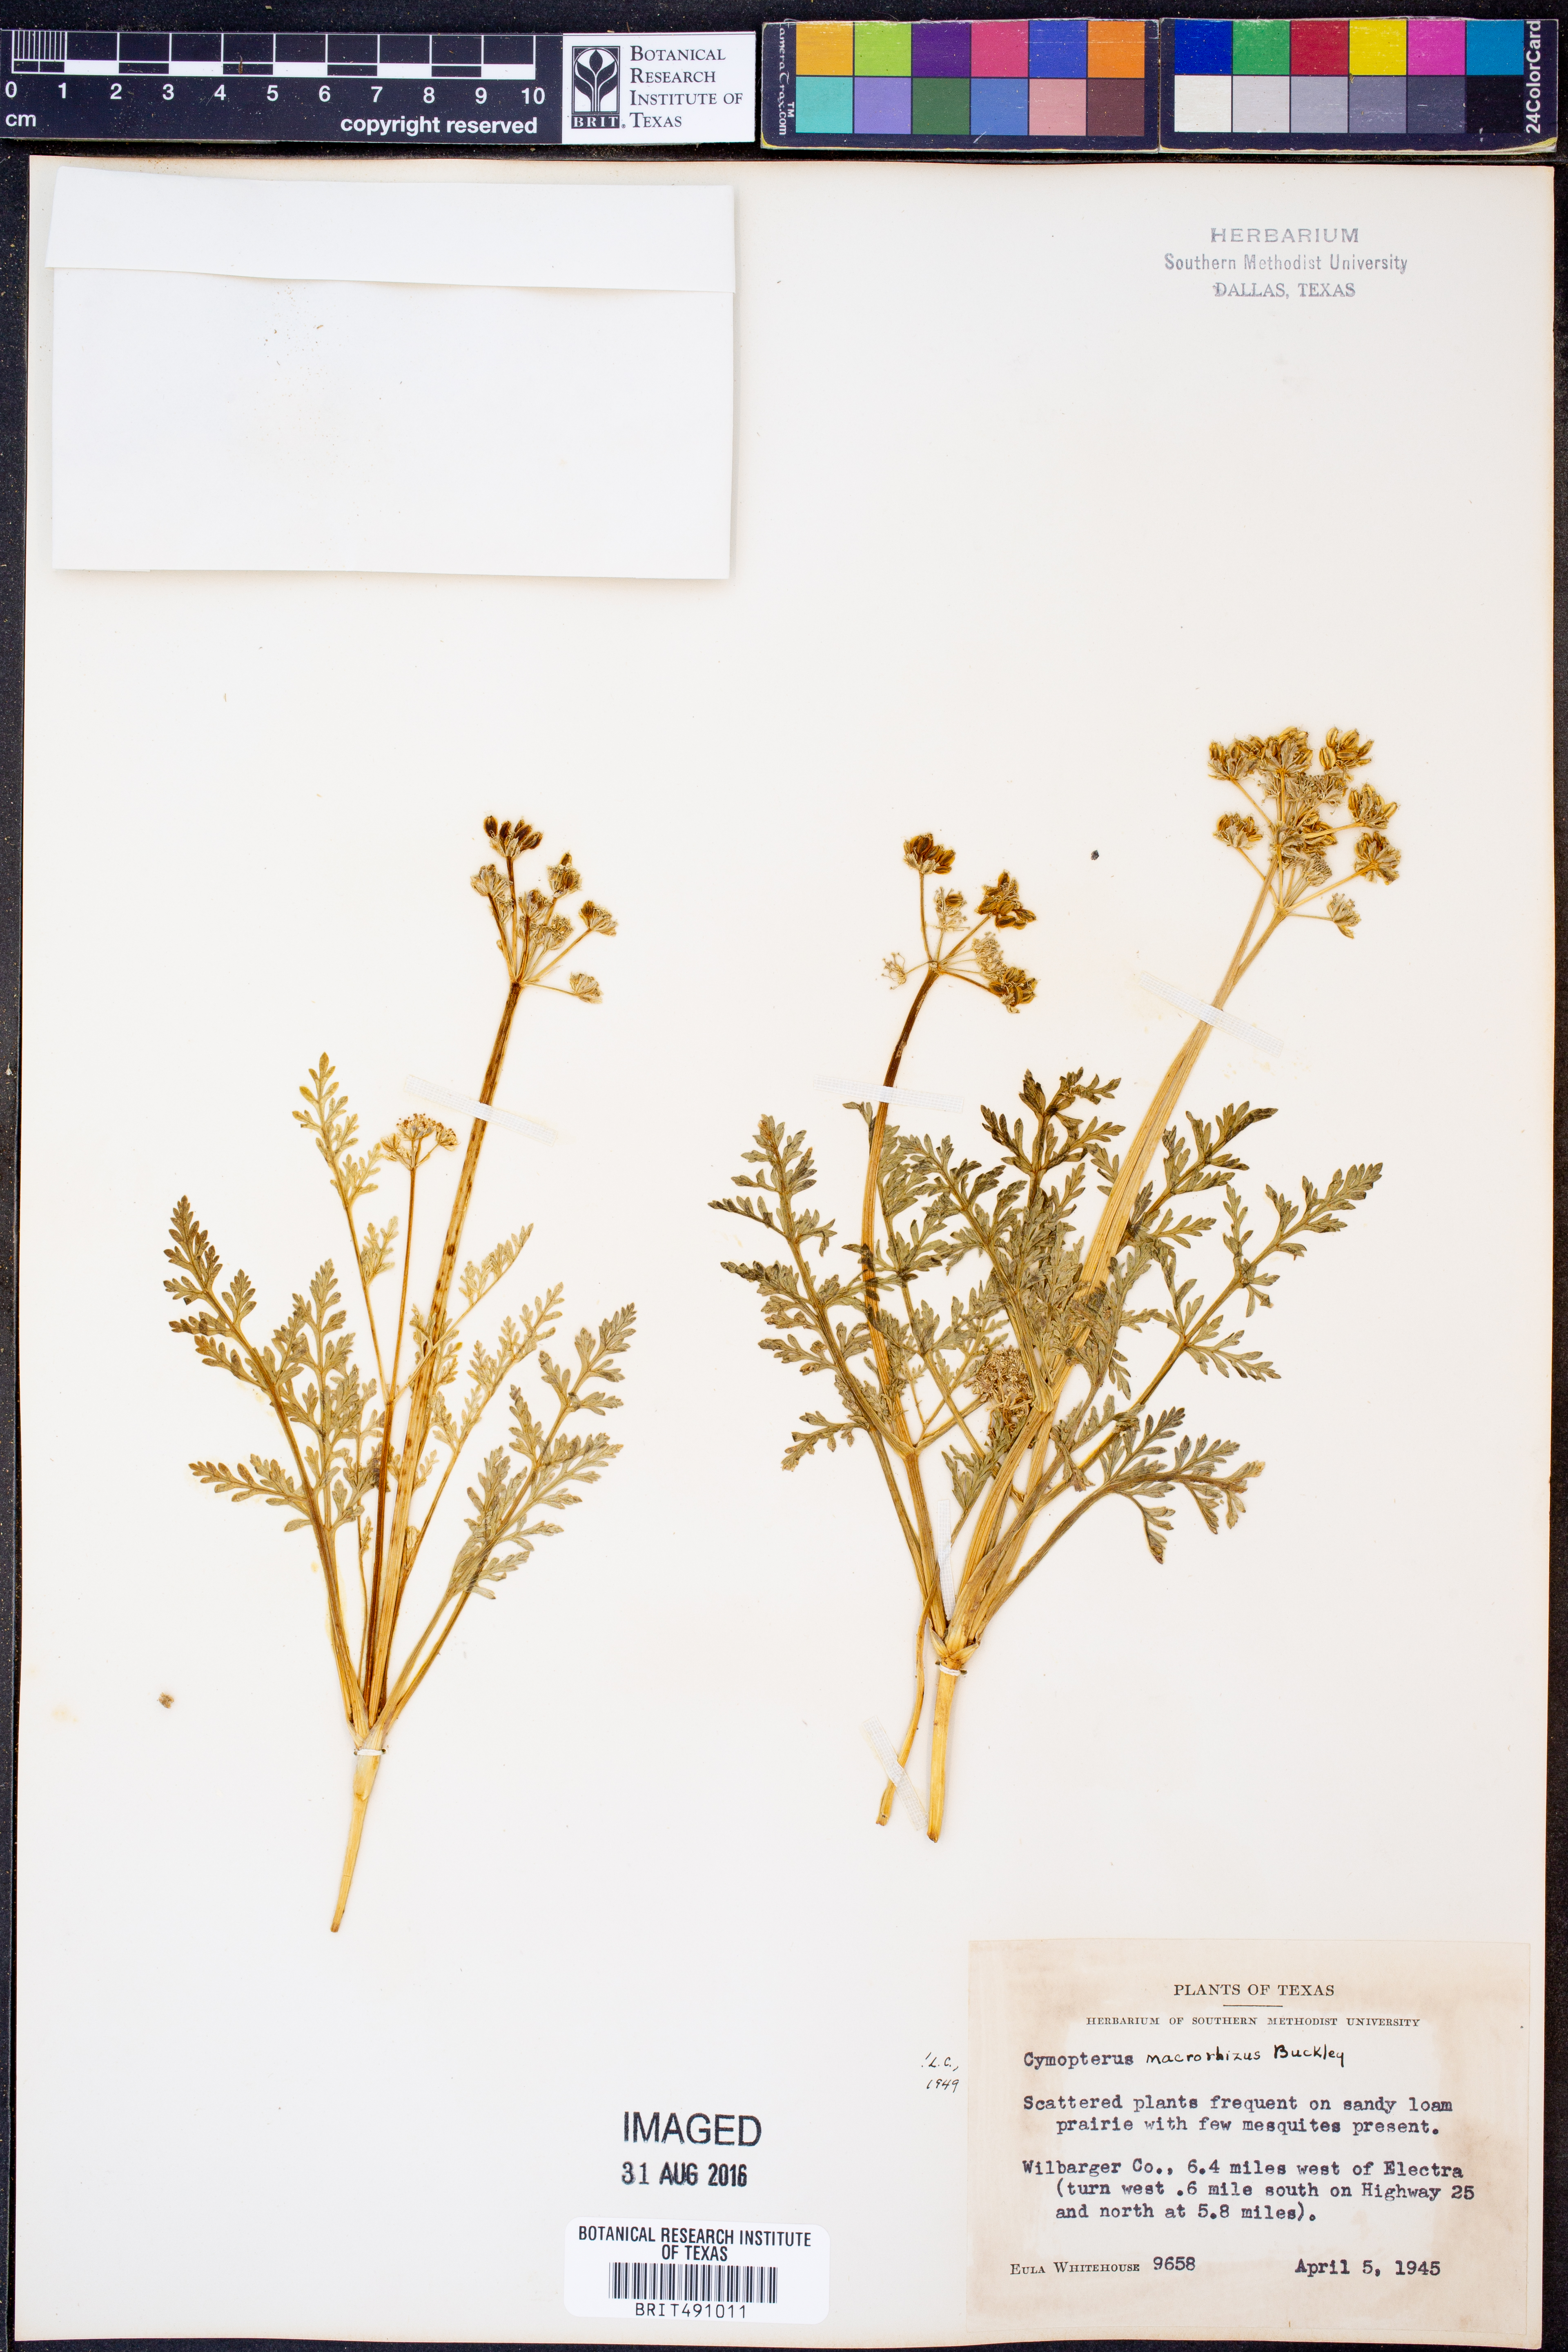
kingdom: Plantae
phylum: Tracheophyta
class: Magnoliopsida
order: Apiales
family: Apiaceae
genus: Vesper
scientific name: Vesper macrorhizus
